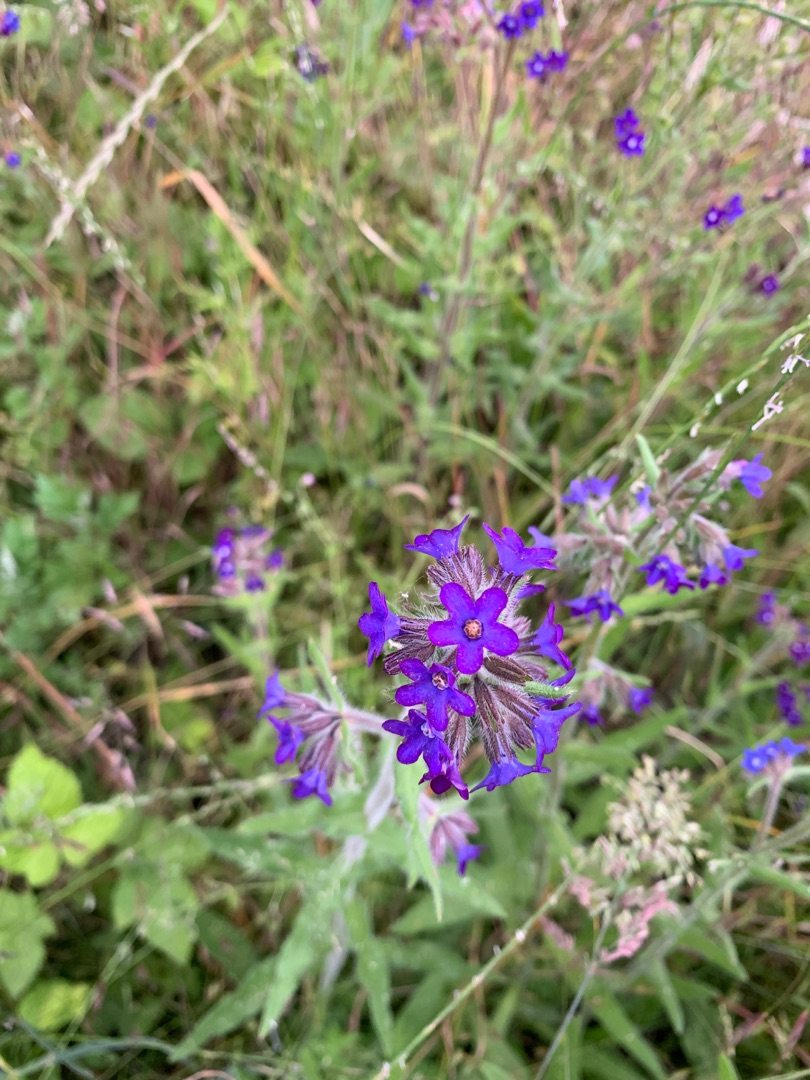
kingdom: Plantae
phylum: Tracheophyta
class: Magnoliopsida
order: Boraginales
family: Boraginaceae
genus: Anchusa
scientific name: Anchusa officinalis
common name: Læge-oksetunge
